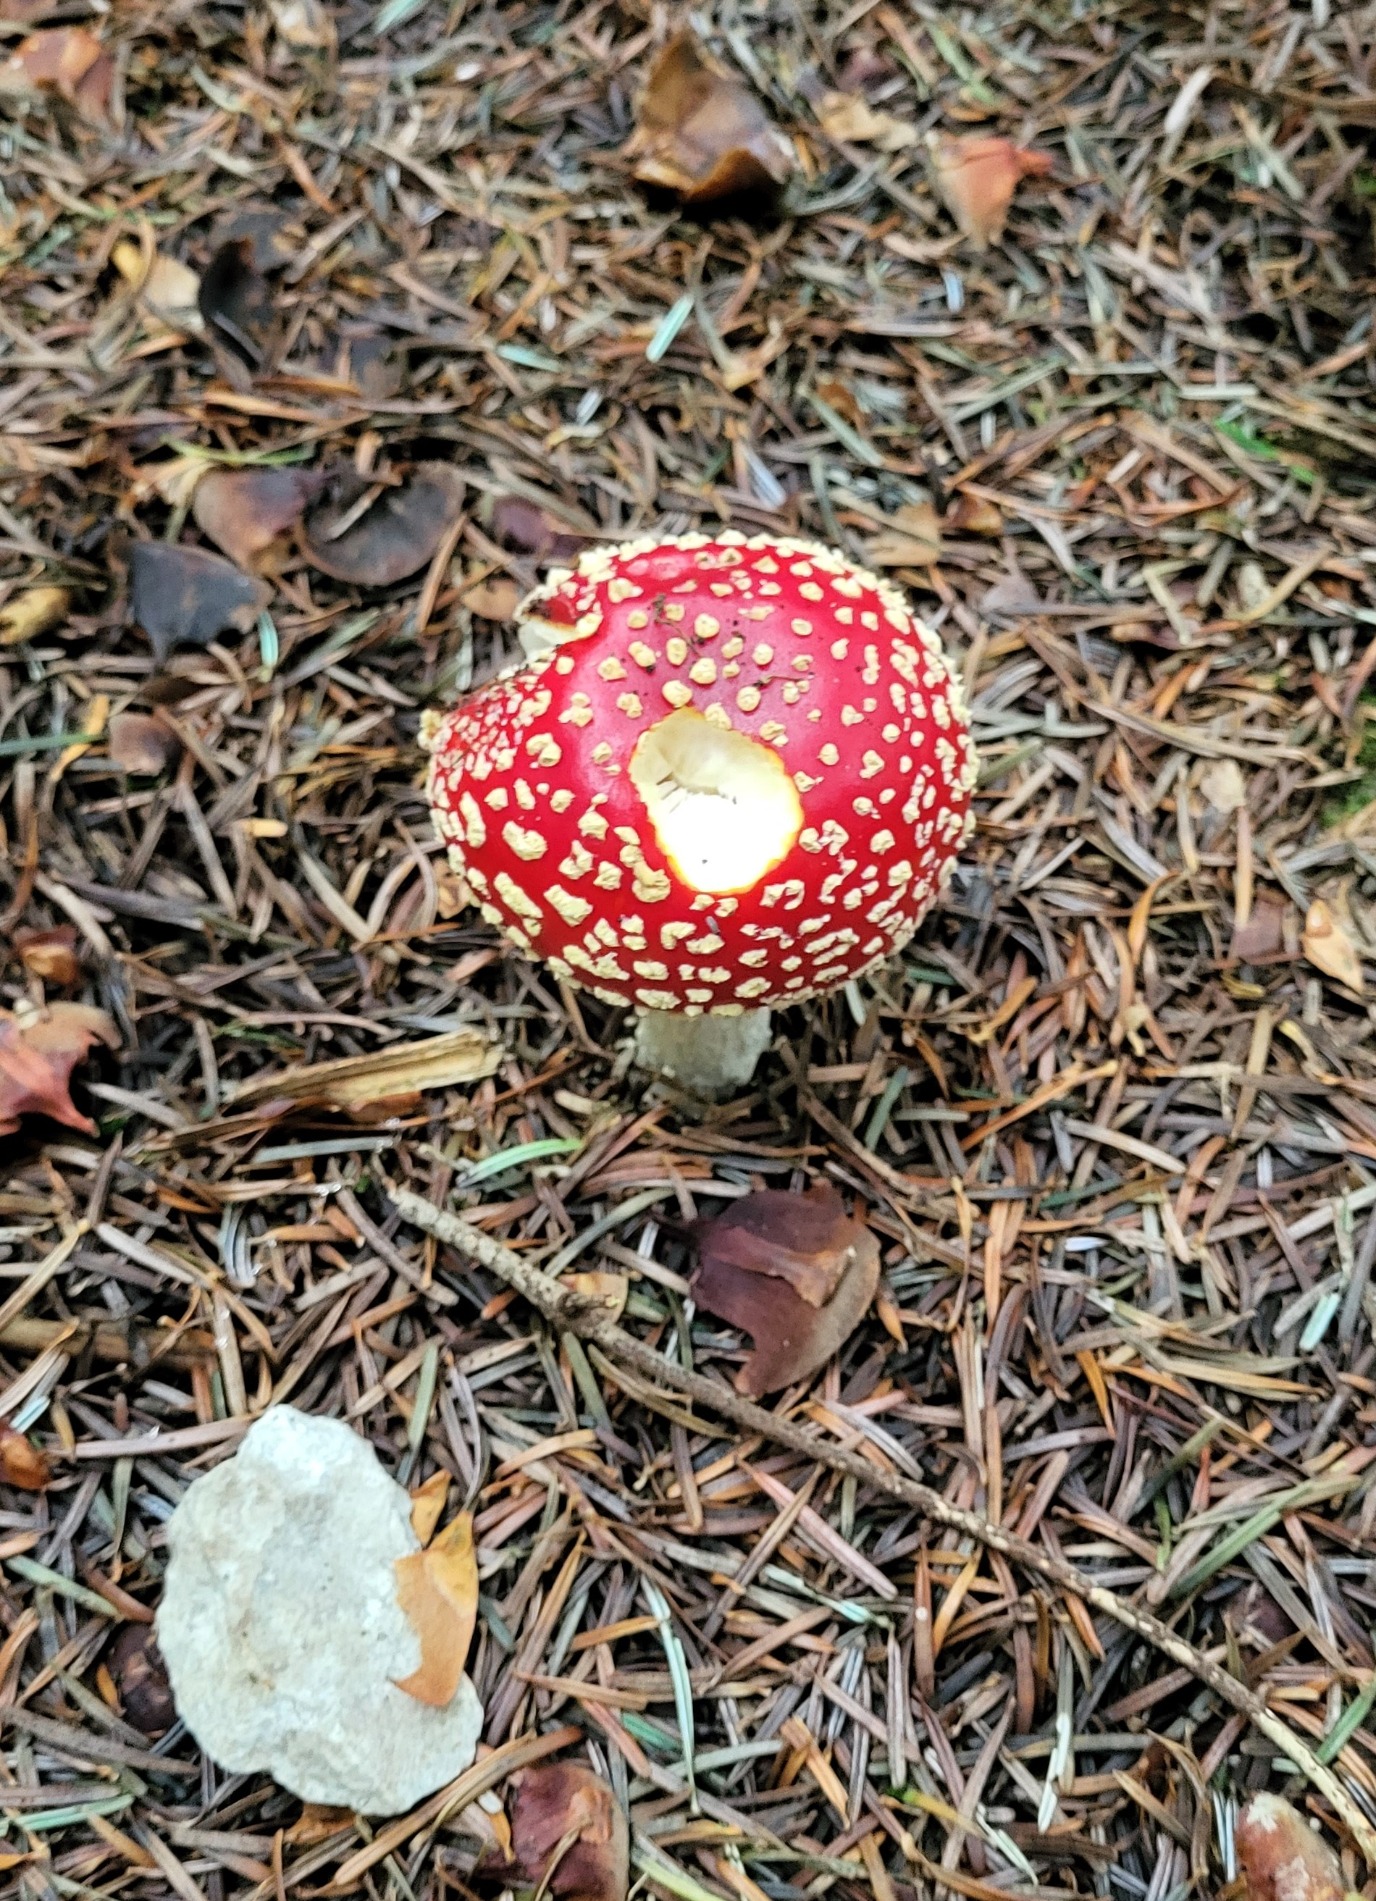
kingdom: Fungi
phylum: Basidiomycota
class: Agaricomycetes
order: Agaricales
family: Amanitaceae
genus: Amanita
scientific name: Amanita muscaria
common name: Rød fluesvamp
